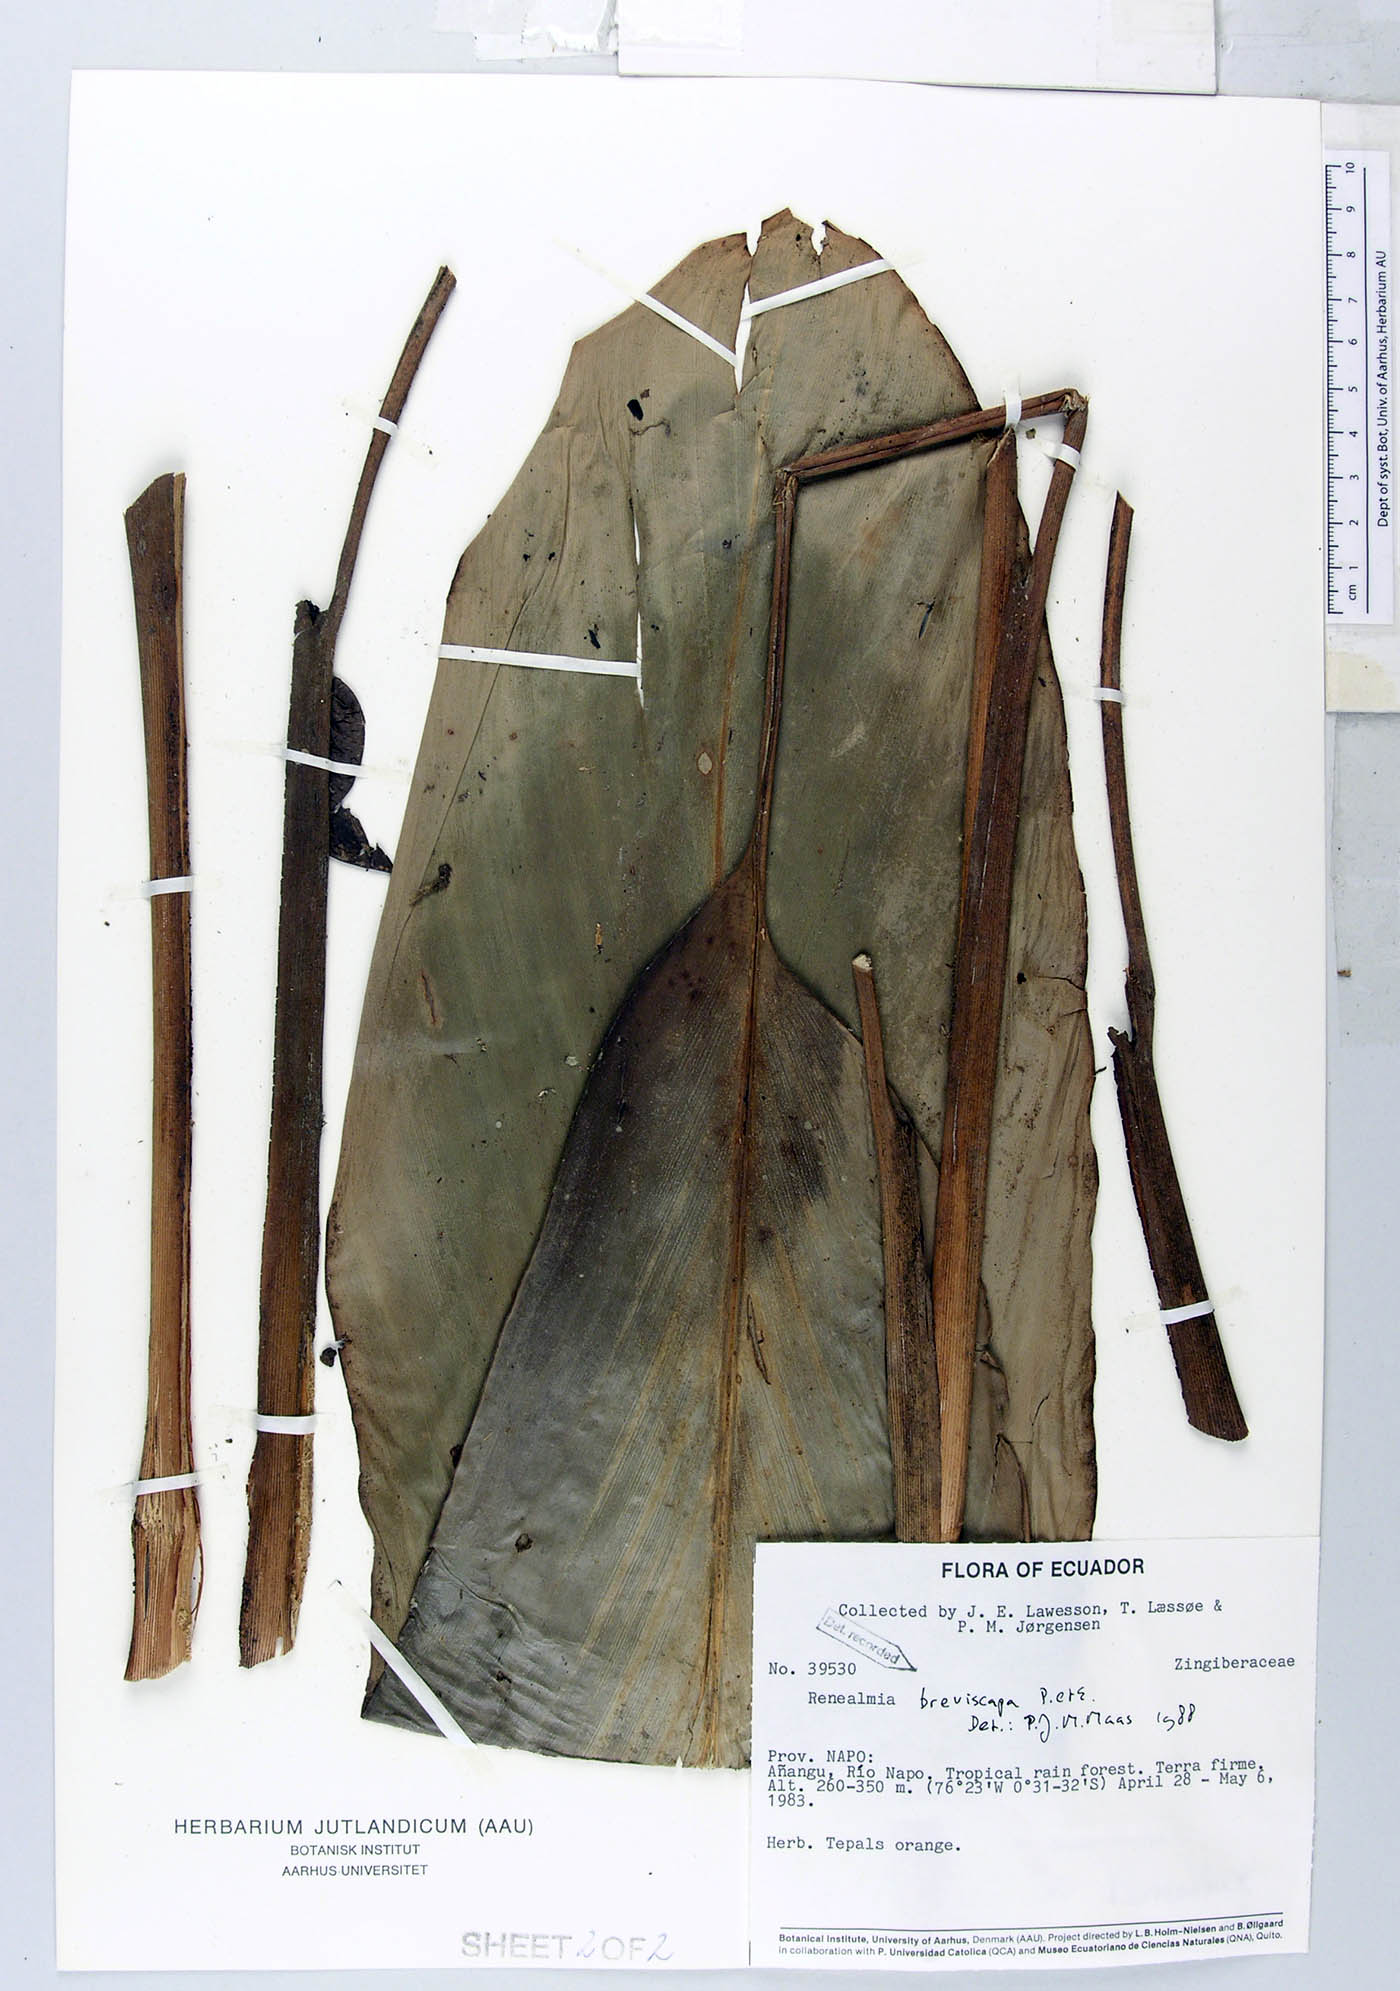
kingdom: Plantae
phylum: Tracheophyta
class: Liliopsida
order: Zingiberales
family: Zingiberaceae
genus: Renealmia
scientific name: Renealmia breviscapa
